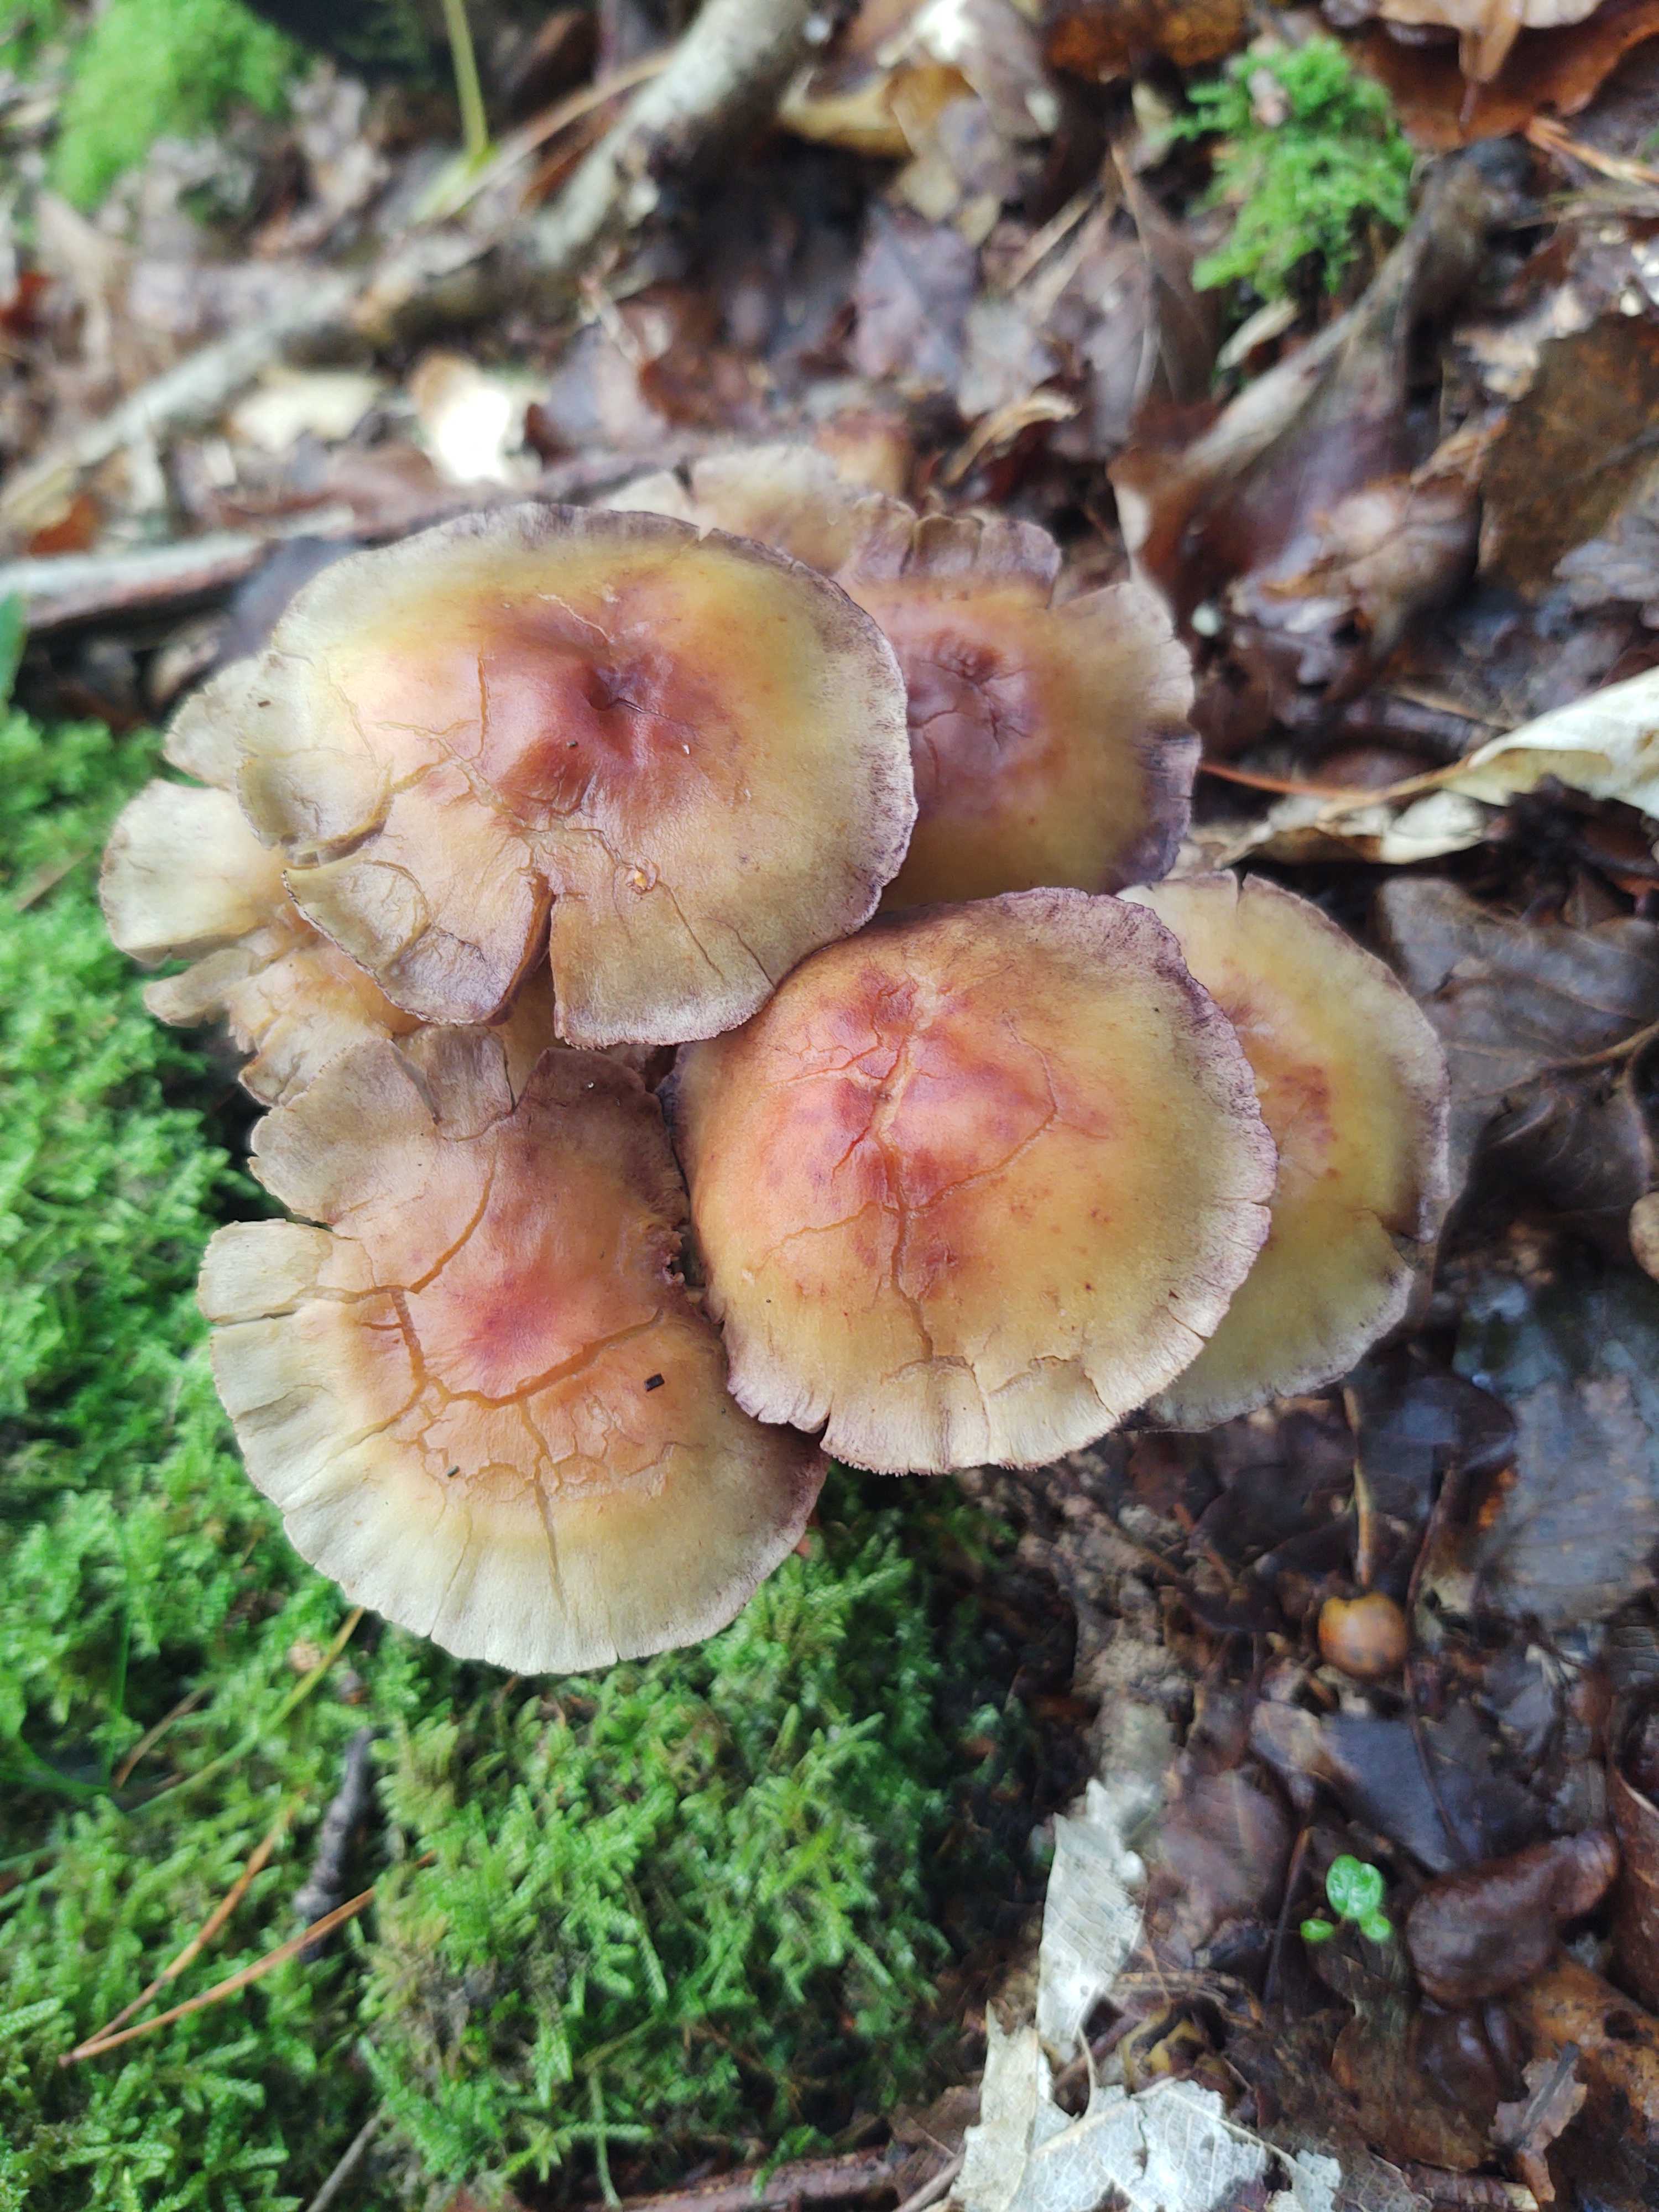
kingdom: Fungi
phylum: Basidiomycota
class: Agaricomycetes
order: Agaricales
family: Strophariaceae
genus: Hypholoma
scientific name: Hypholoma fasciculare
